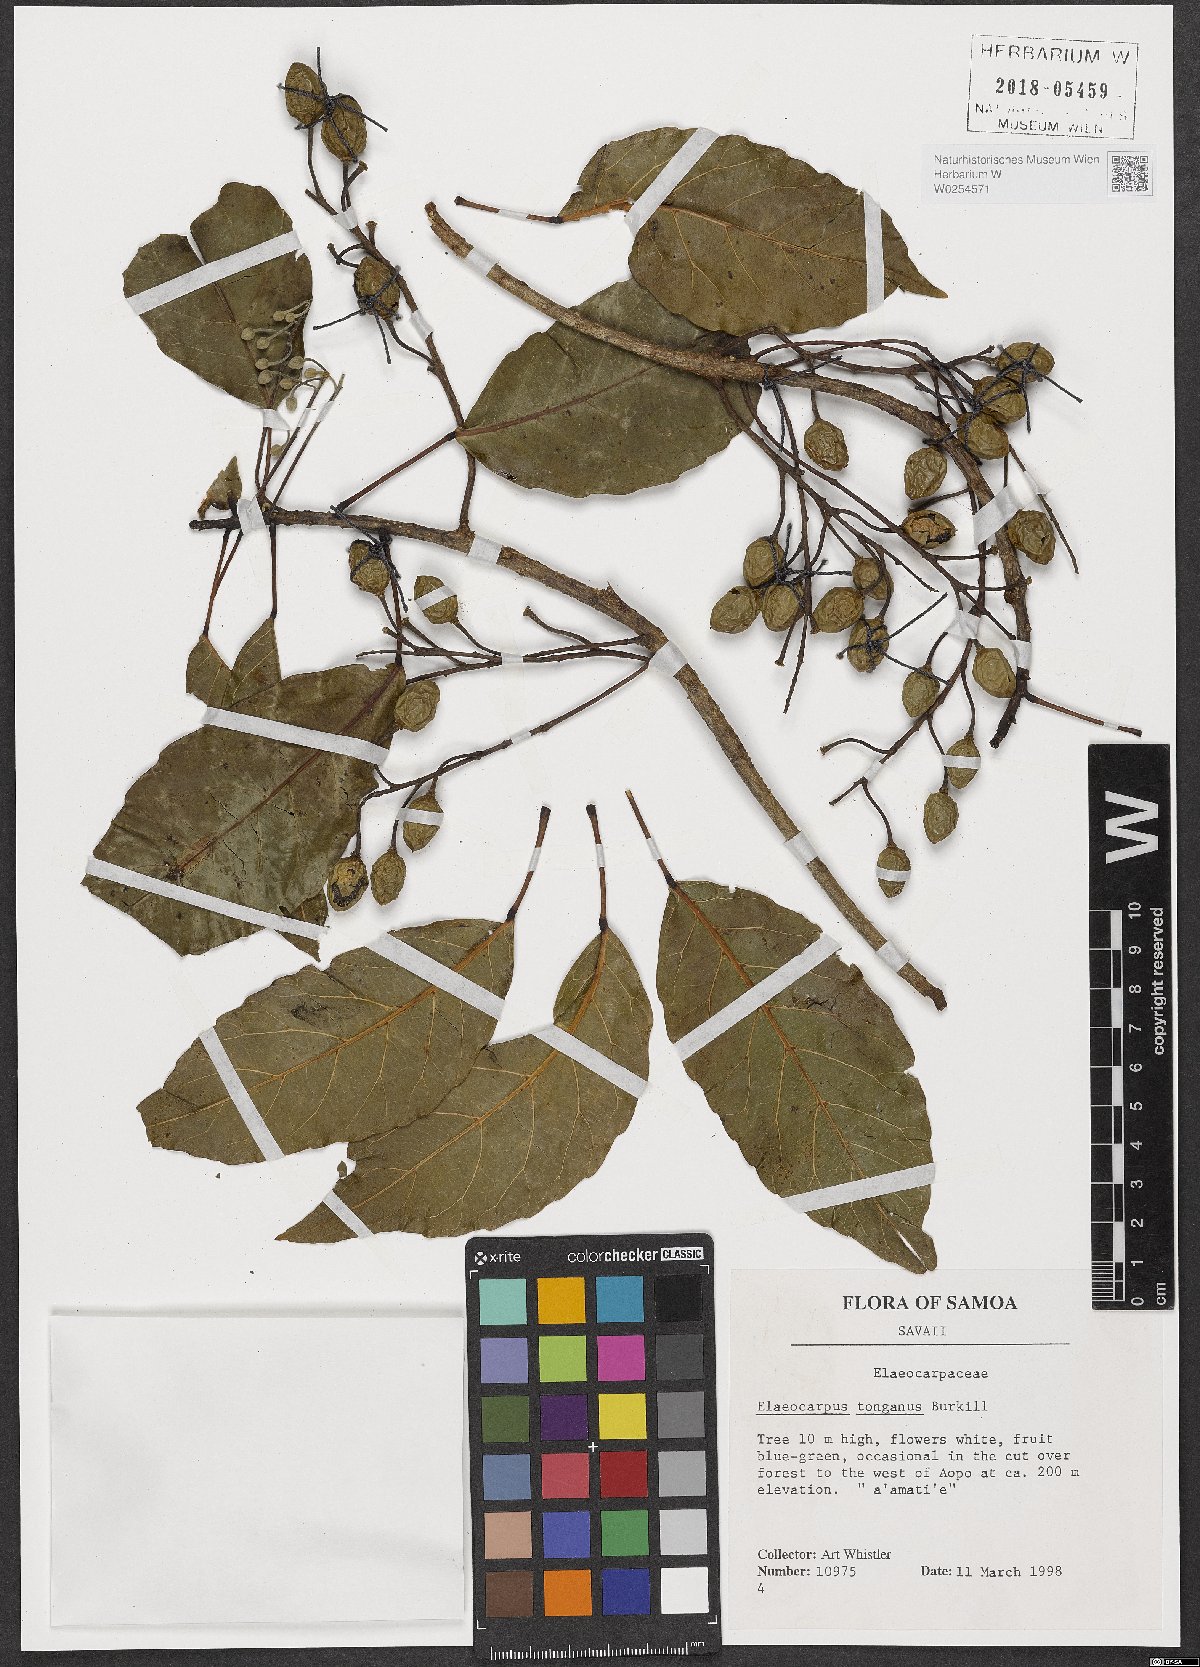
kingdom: Plantae
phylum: Tracheophyta
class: Magnoliopsida
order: Oxalidales
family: Elaeocarpaceae
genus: Elaeocarpus
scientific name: Elaeocarpus floridanus
